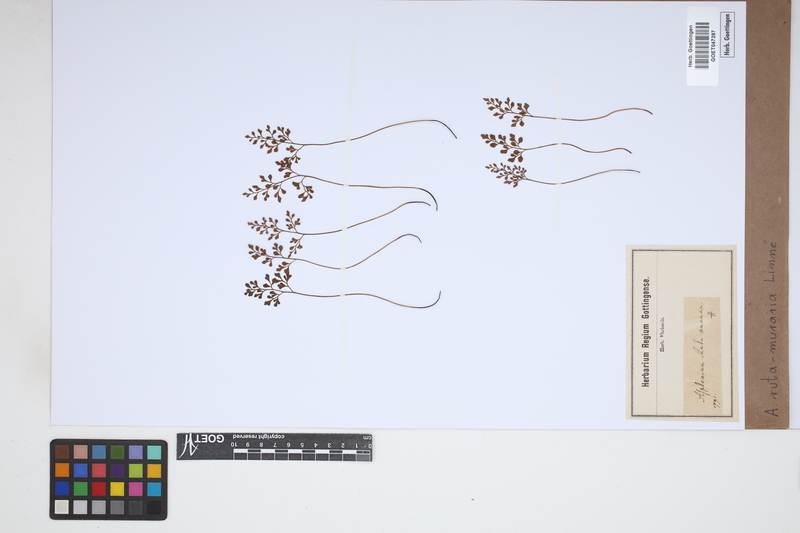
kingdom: Plantae
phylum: Tracheophyta
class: Polypodiopsida
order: Polypodiales
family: Aspleniaceae
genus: Asplenium
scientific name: Asplenium ruta-muraria
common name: Wall-rue
